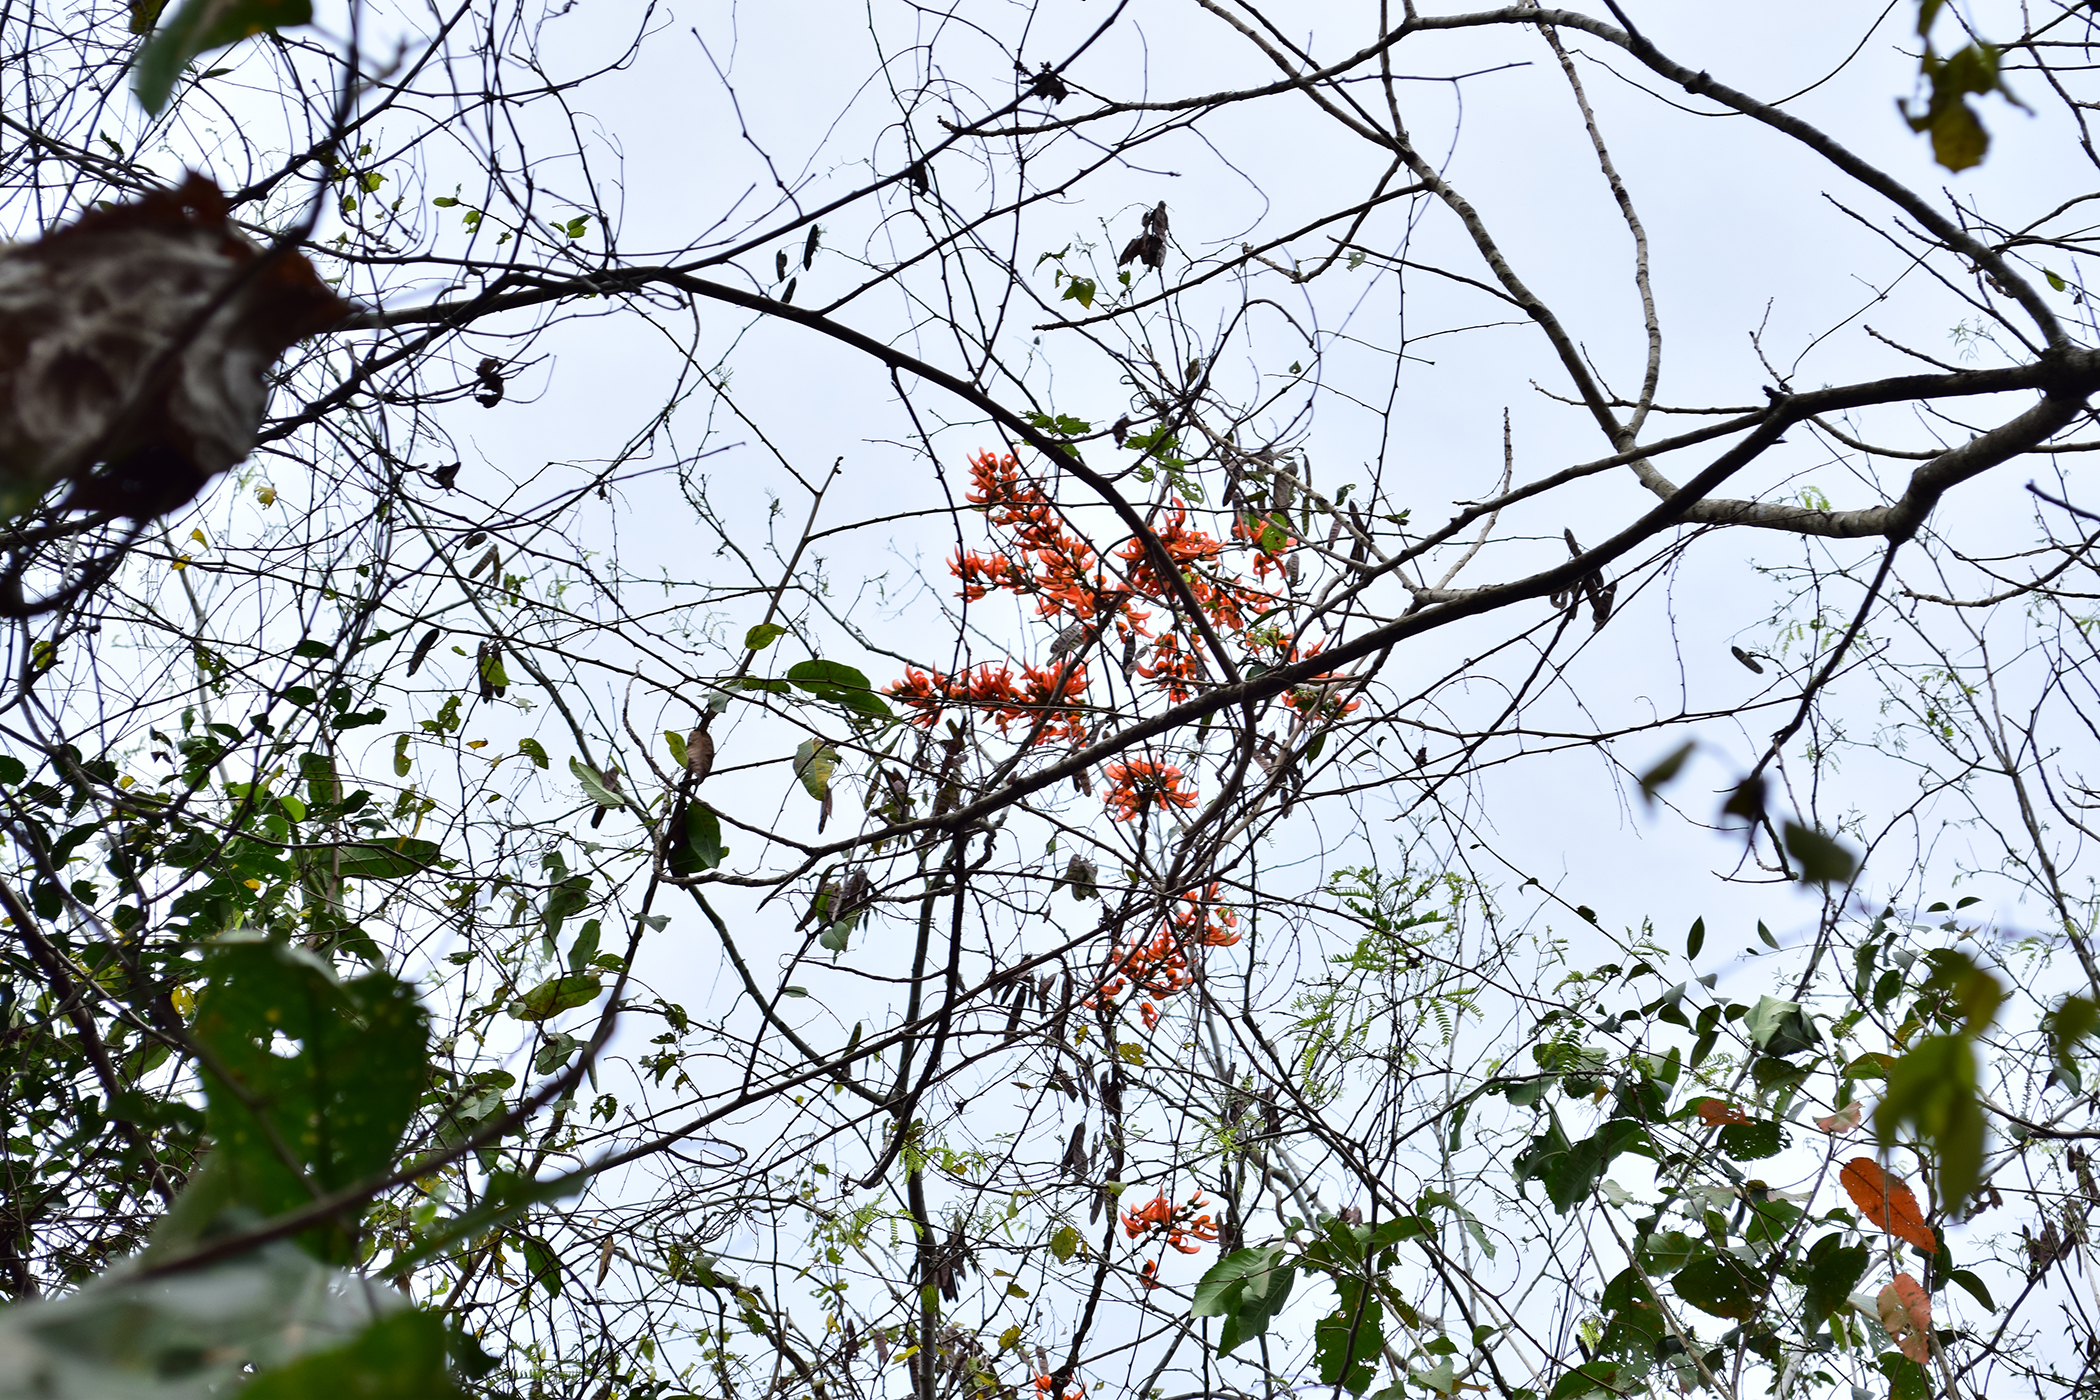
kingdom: Plantae
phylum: Tracheophyta
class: Magnoliopsida
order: Fabales
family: Fabaceae
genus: Butea
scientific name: Butea superba
